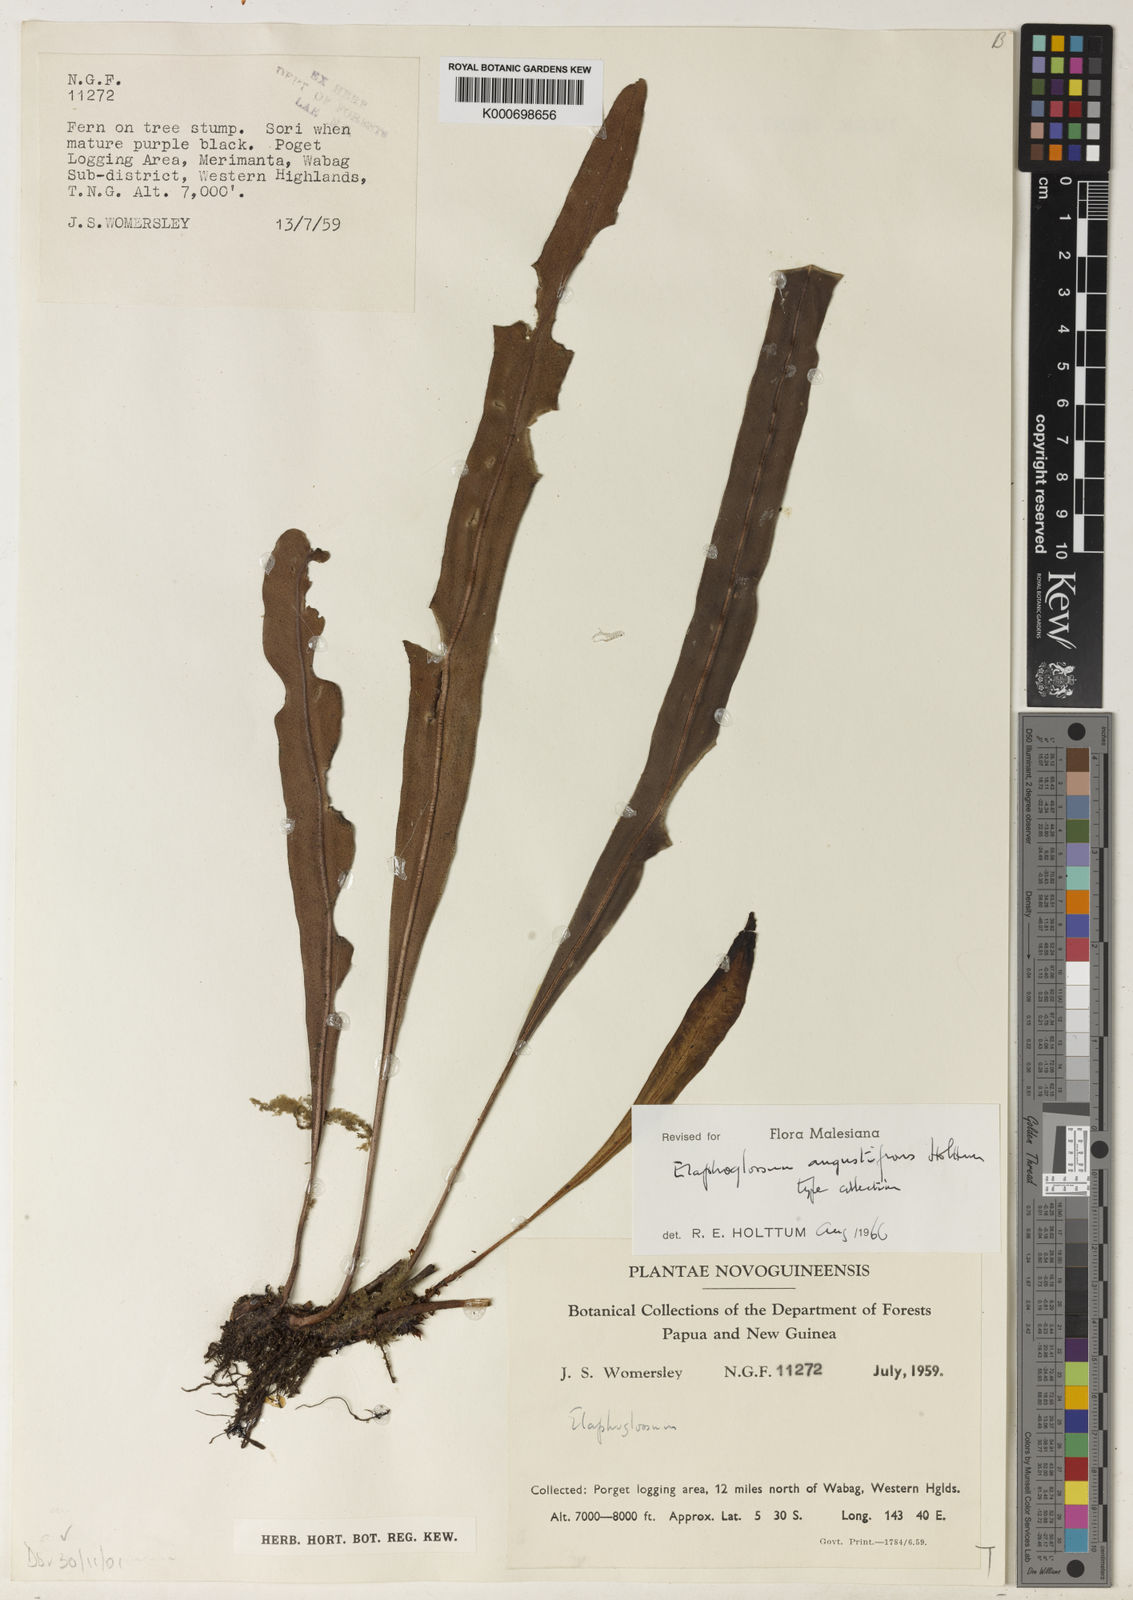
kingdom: Plantae
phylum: Tracheophyta
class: Polypodiopsida
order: Polypodiales
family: Dryopteridaceae
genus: Elaphoglossum
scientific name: Elaphoglossum angustifrons
